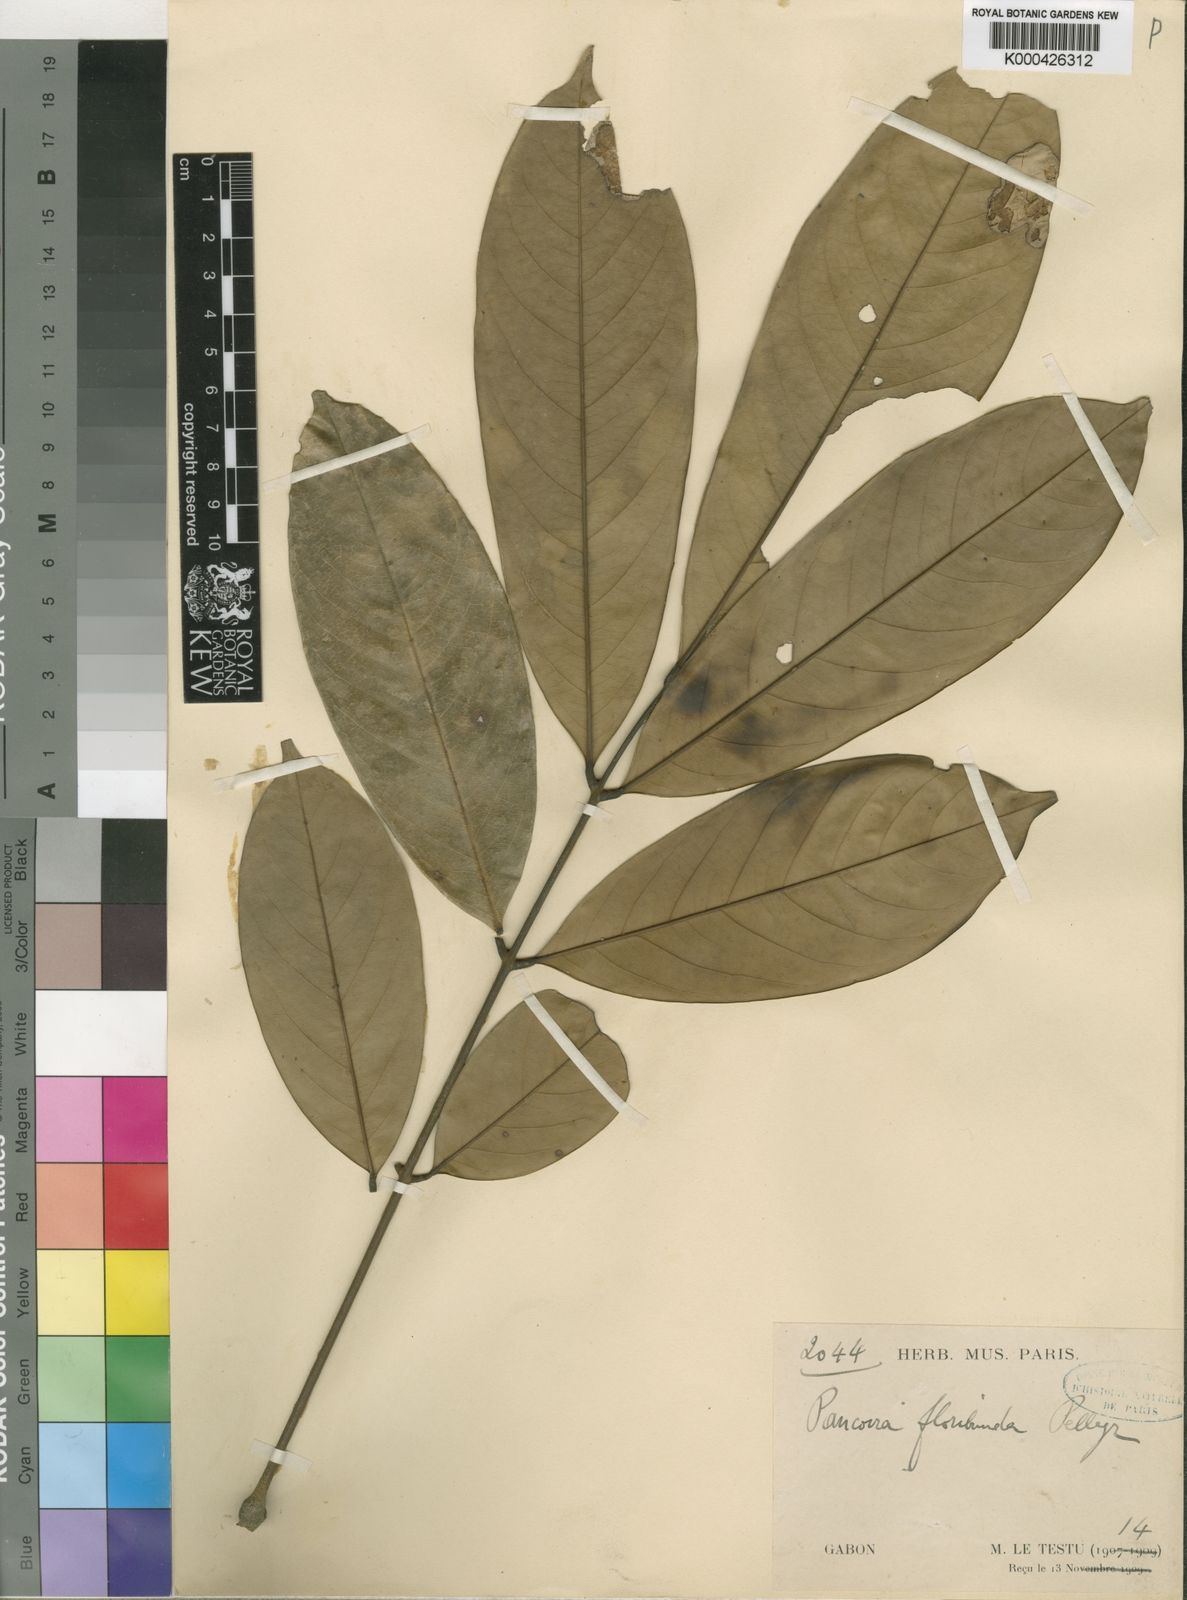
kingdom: Plantae
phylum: Tracheophyta
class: Magnoliopsida
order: Sapindales
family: Sapindaceae
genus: Pancovia
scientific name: Pancovia floribunda
